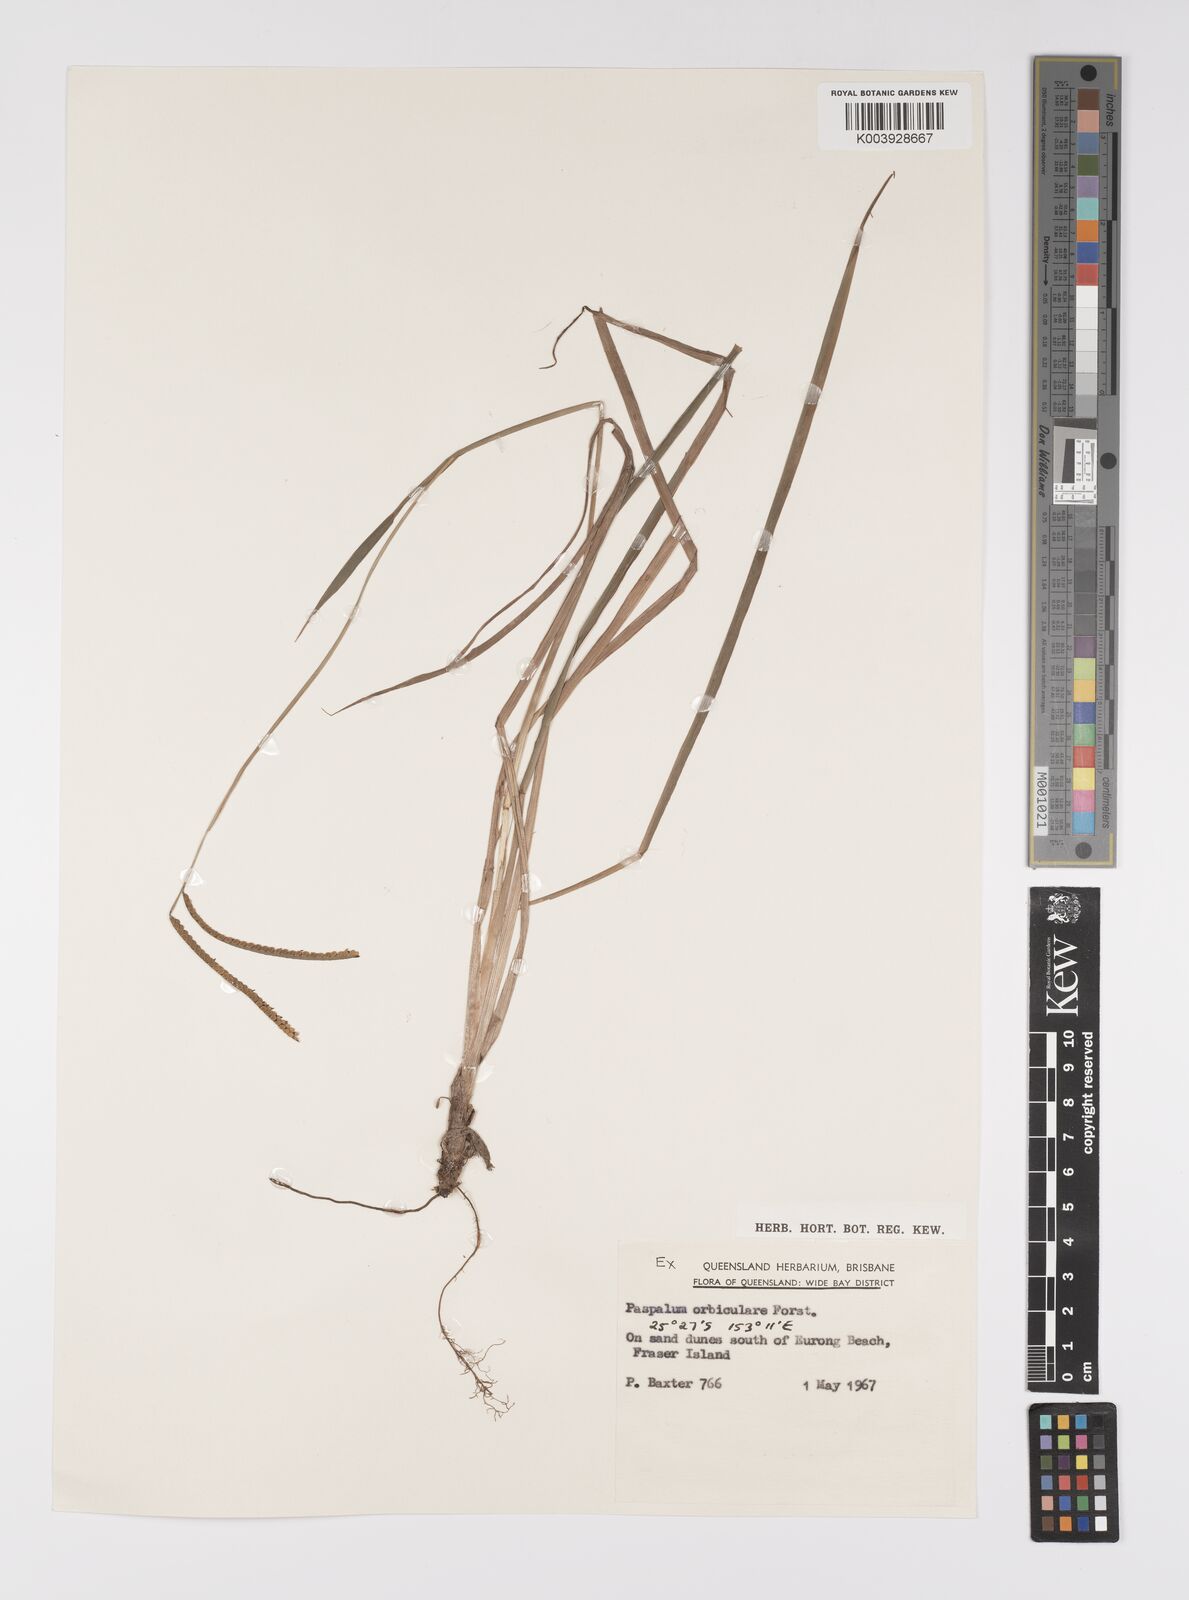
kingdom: Plantae
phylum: Tracheophyta
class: Liliopsida
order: Poales
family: Poaceae
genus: Paspalum
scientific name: Paspalum scrobiculatum
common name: Kodo millet
